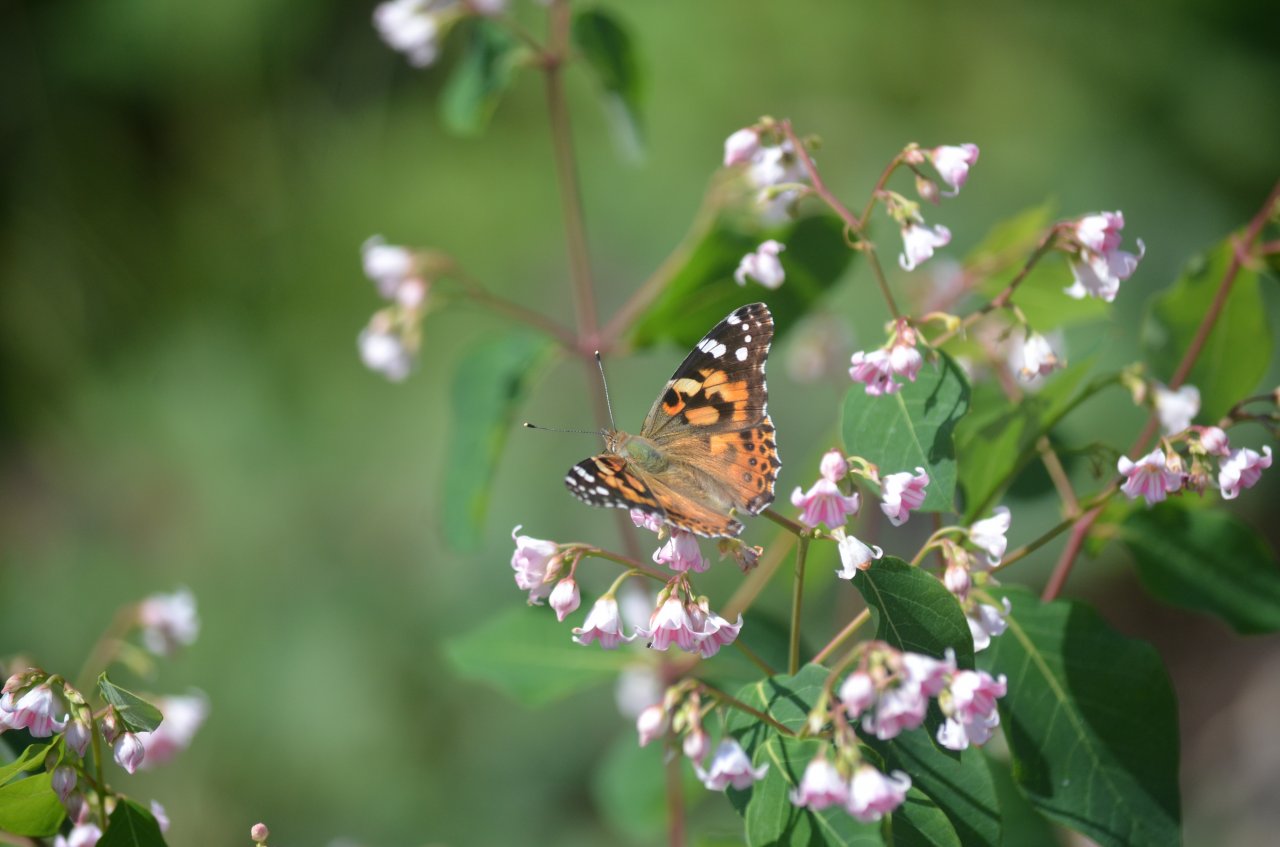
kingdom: Animalia
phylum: Arthropoda
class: Insecta
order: Lepidoptera
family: Nymphalidae
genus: Vanessa
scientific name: Vanessa cardui
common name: Painted Lady
